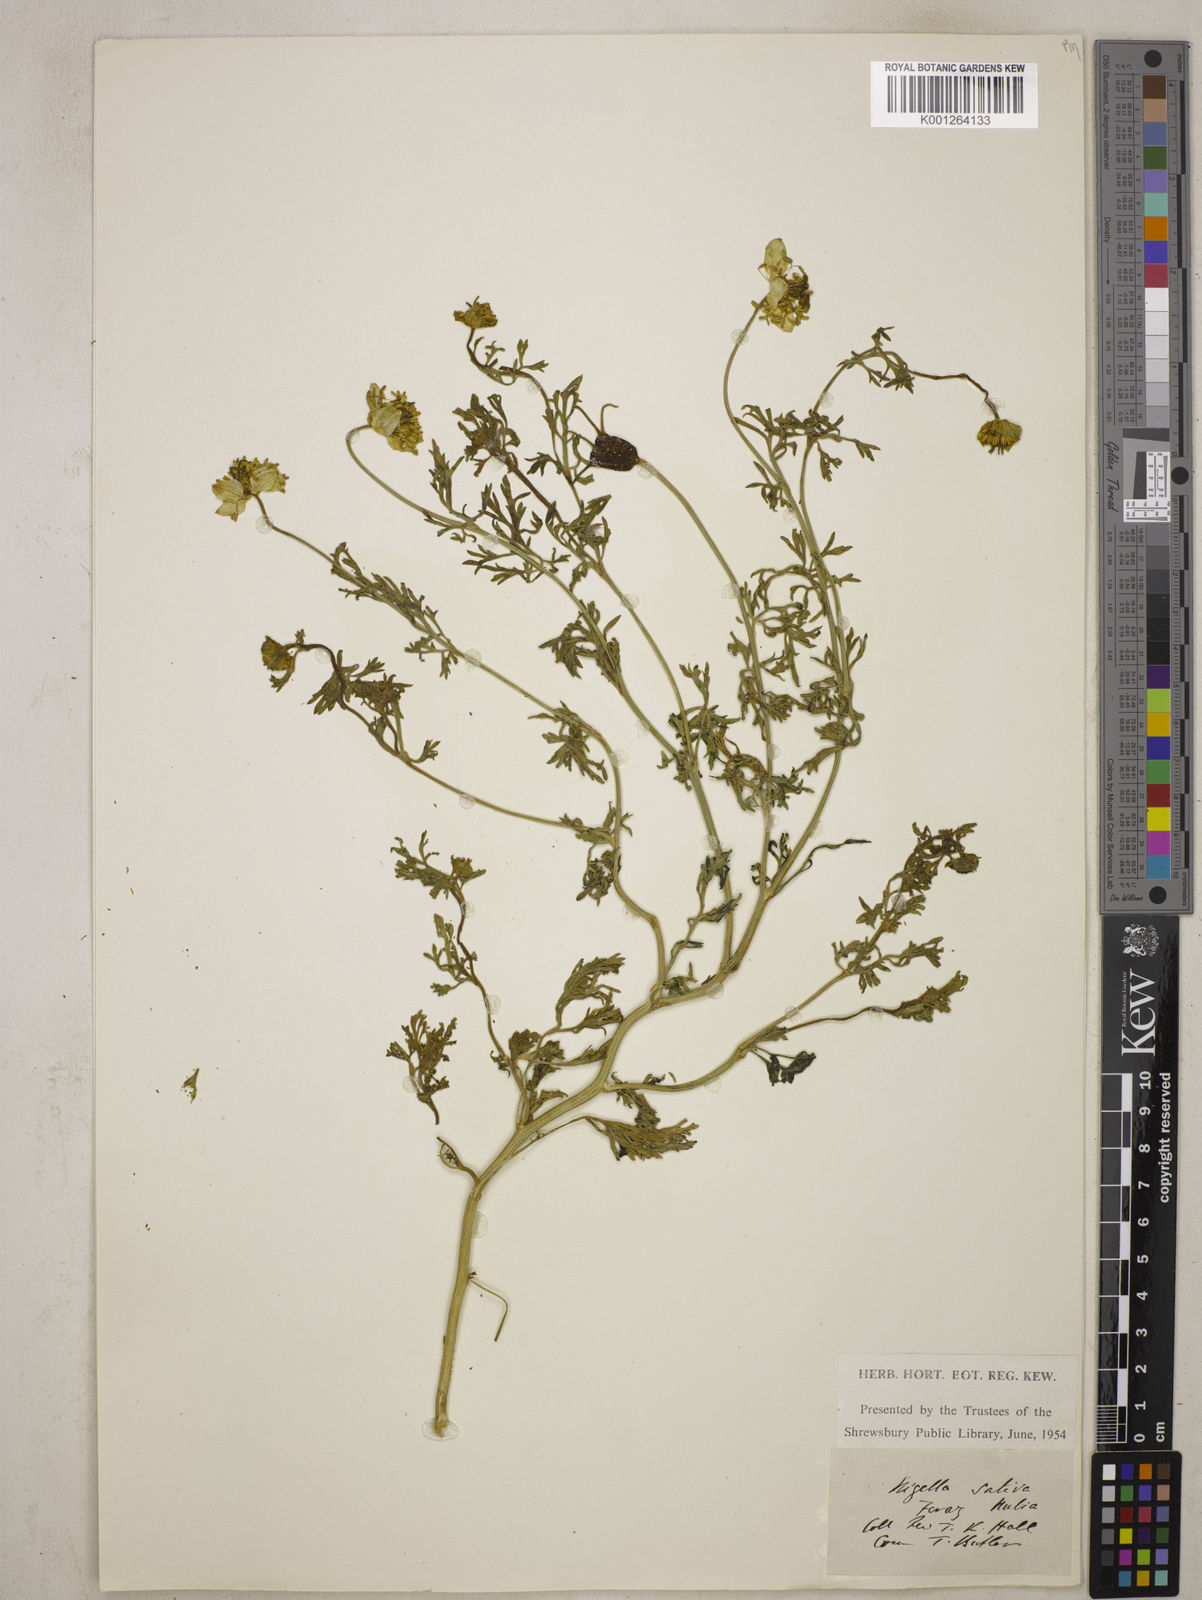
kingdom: Plantae
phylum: Tracheophyta
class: Magnoliopsida
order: Ranunculales
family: Ranunculaceae
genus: Nigella
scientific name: Nigella sativa
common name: Black-cumin
